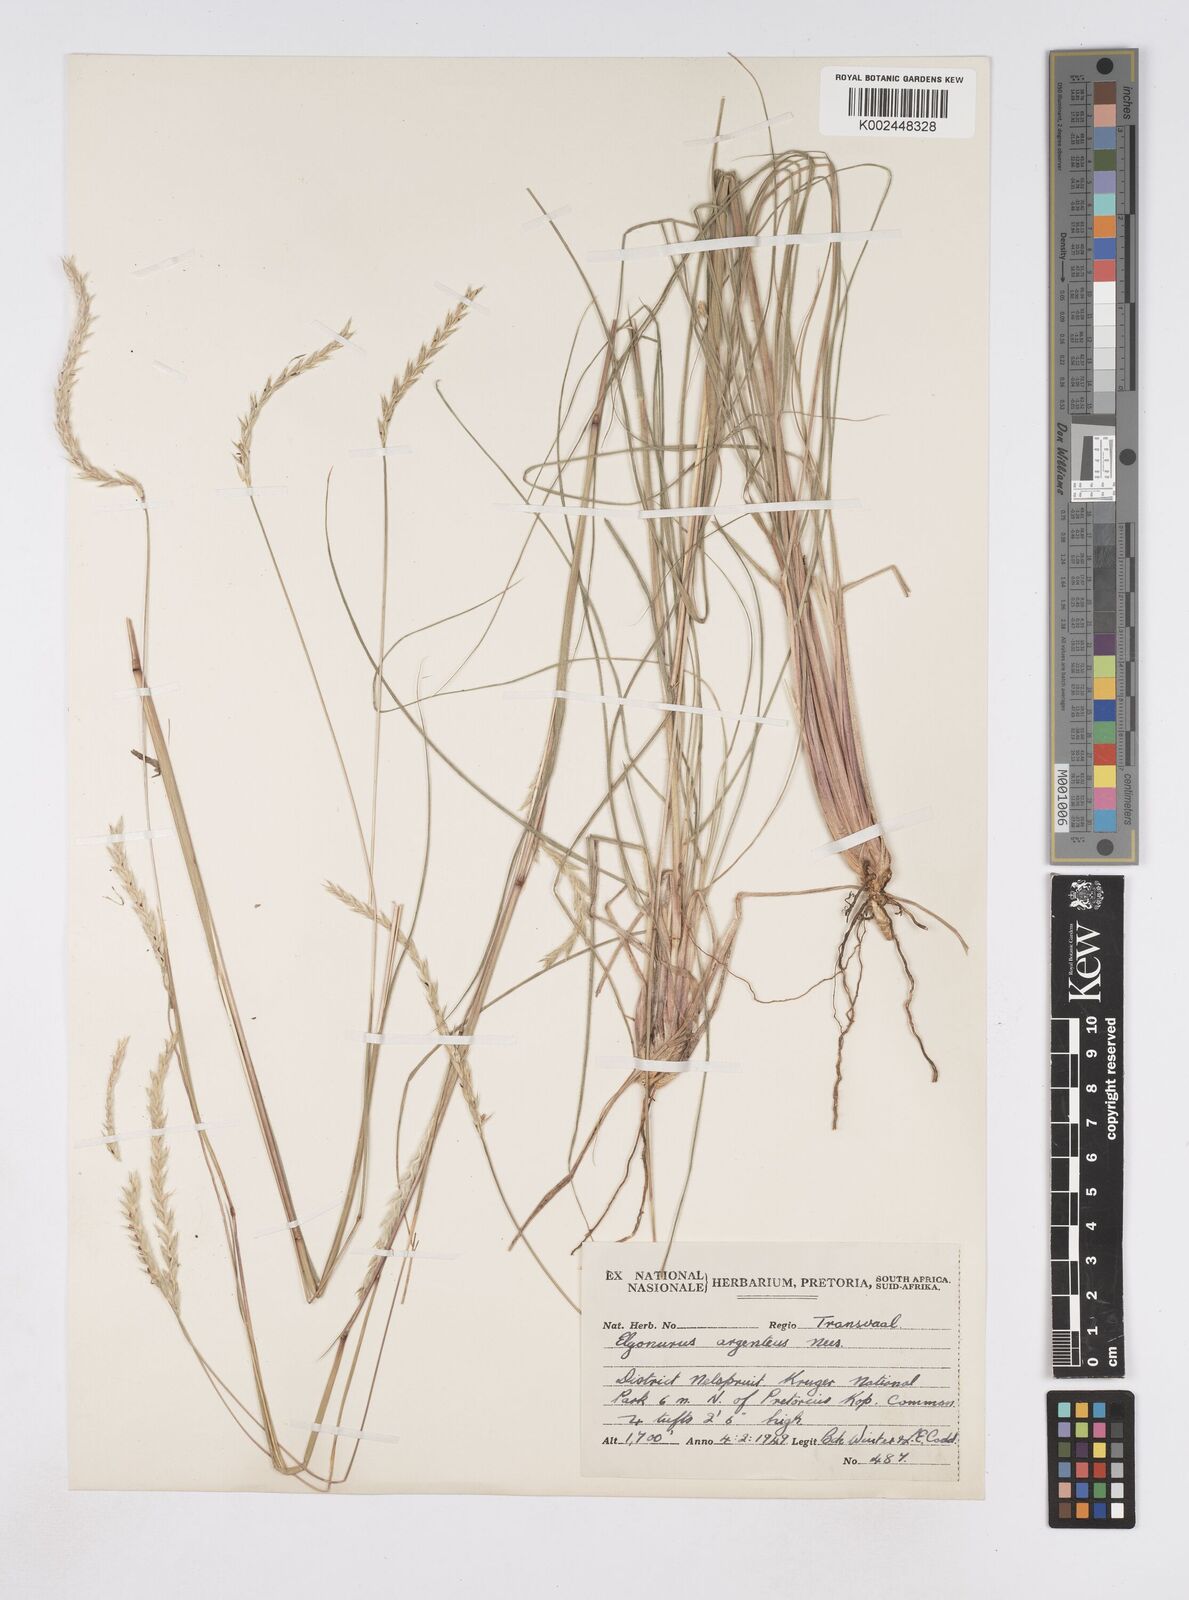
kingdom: Plantae
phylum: Tracheophyta
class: Liliopsida
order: Poales
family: Poaceae
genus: Elionurus
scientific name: Elionurus muticus
